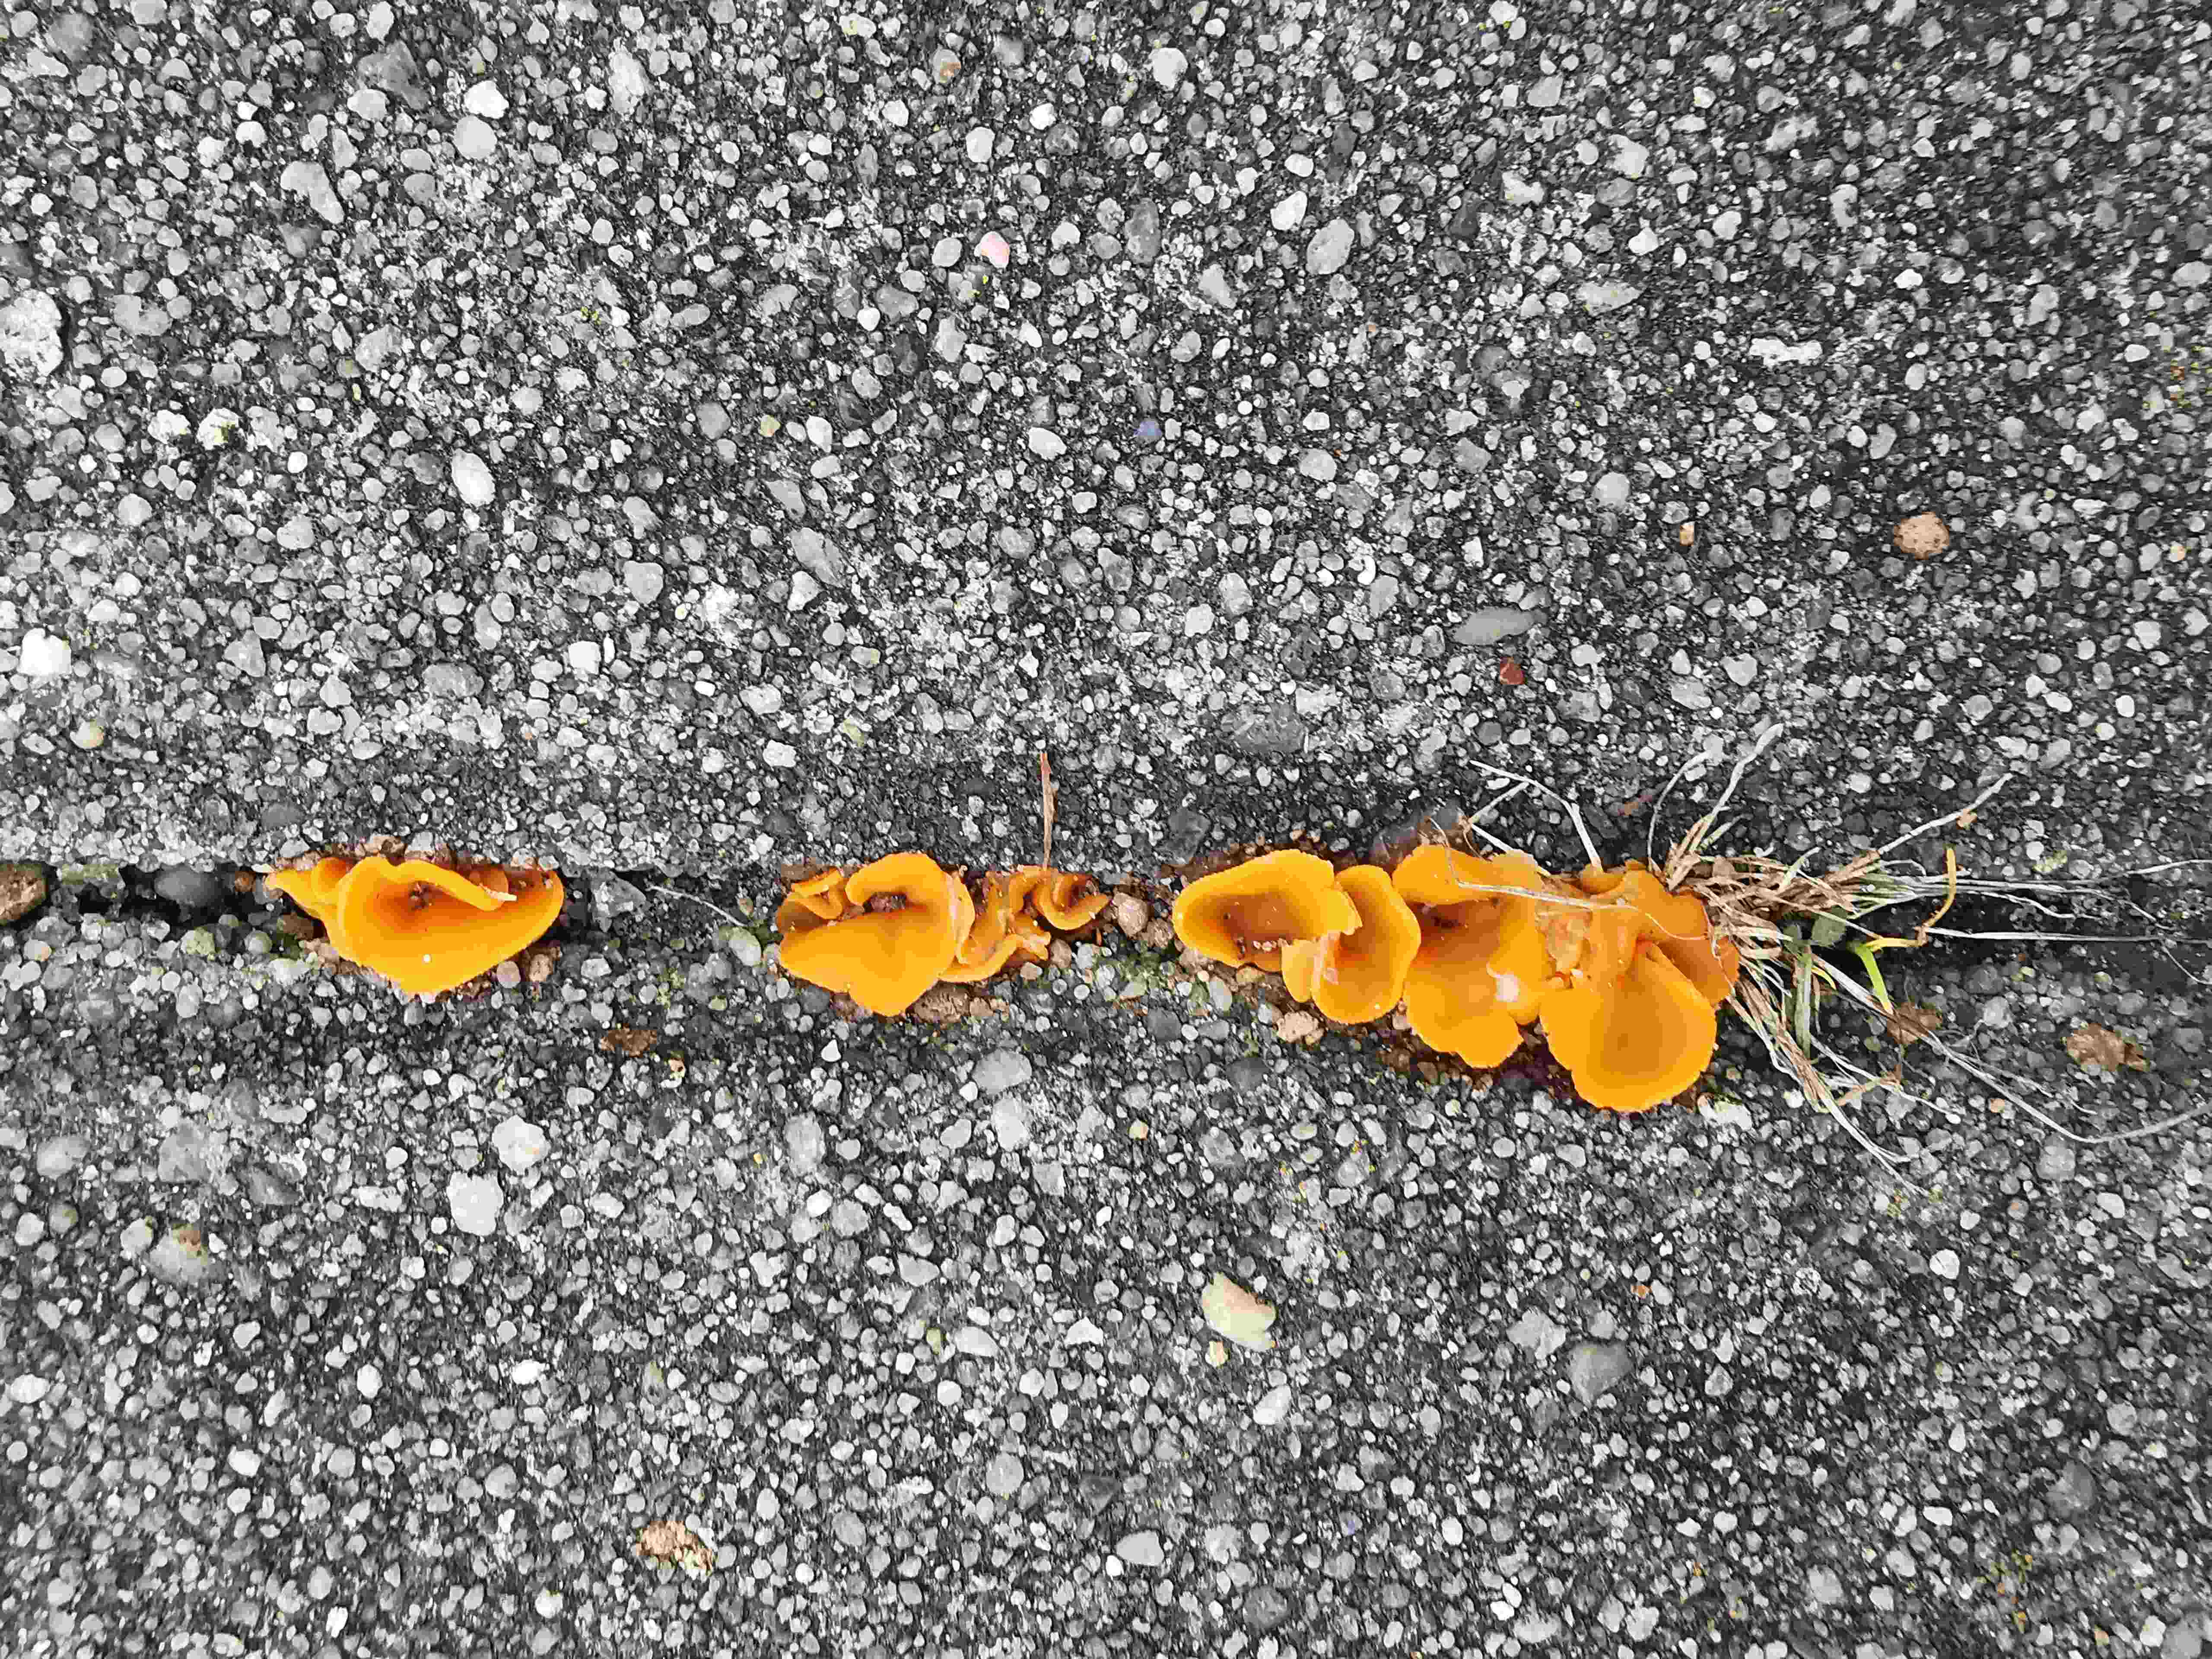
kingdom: Fungi
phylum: Ascomycota
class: Pezizomycetes
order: Pezizales
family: Pyronemataceae
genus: Aleuria
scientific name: Aleuria aurantia
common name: almindelig orangebæger
